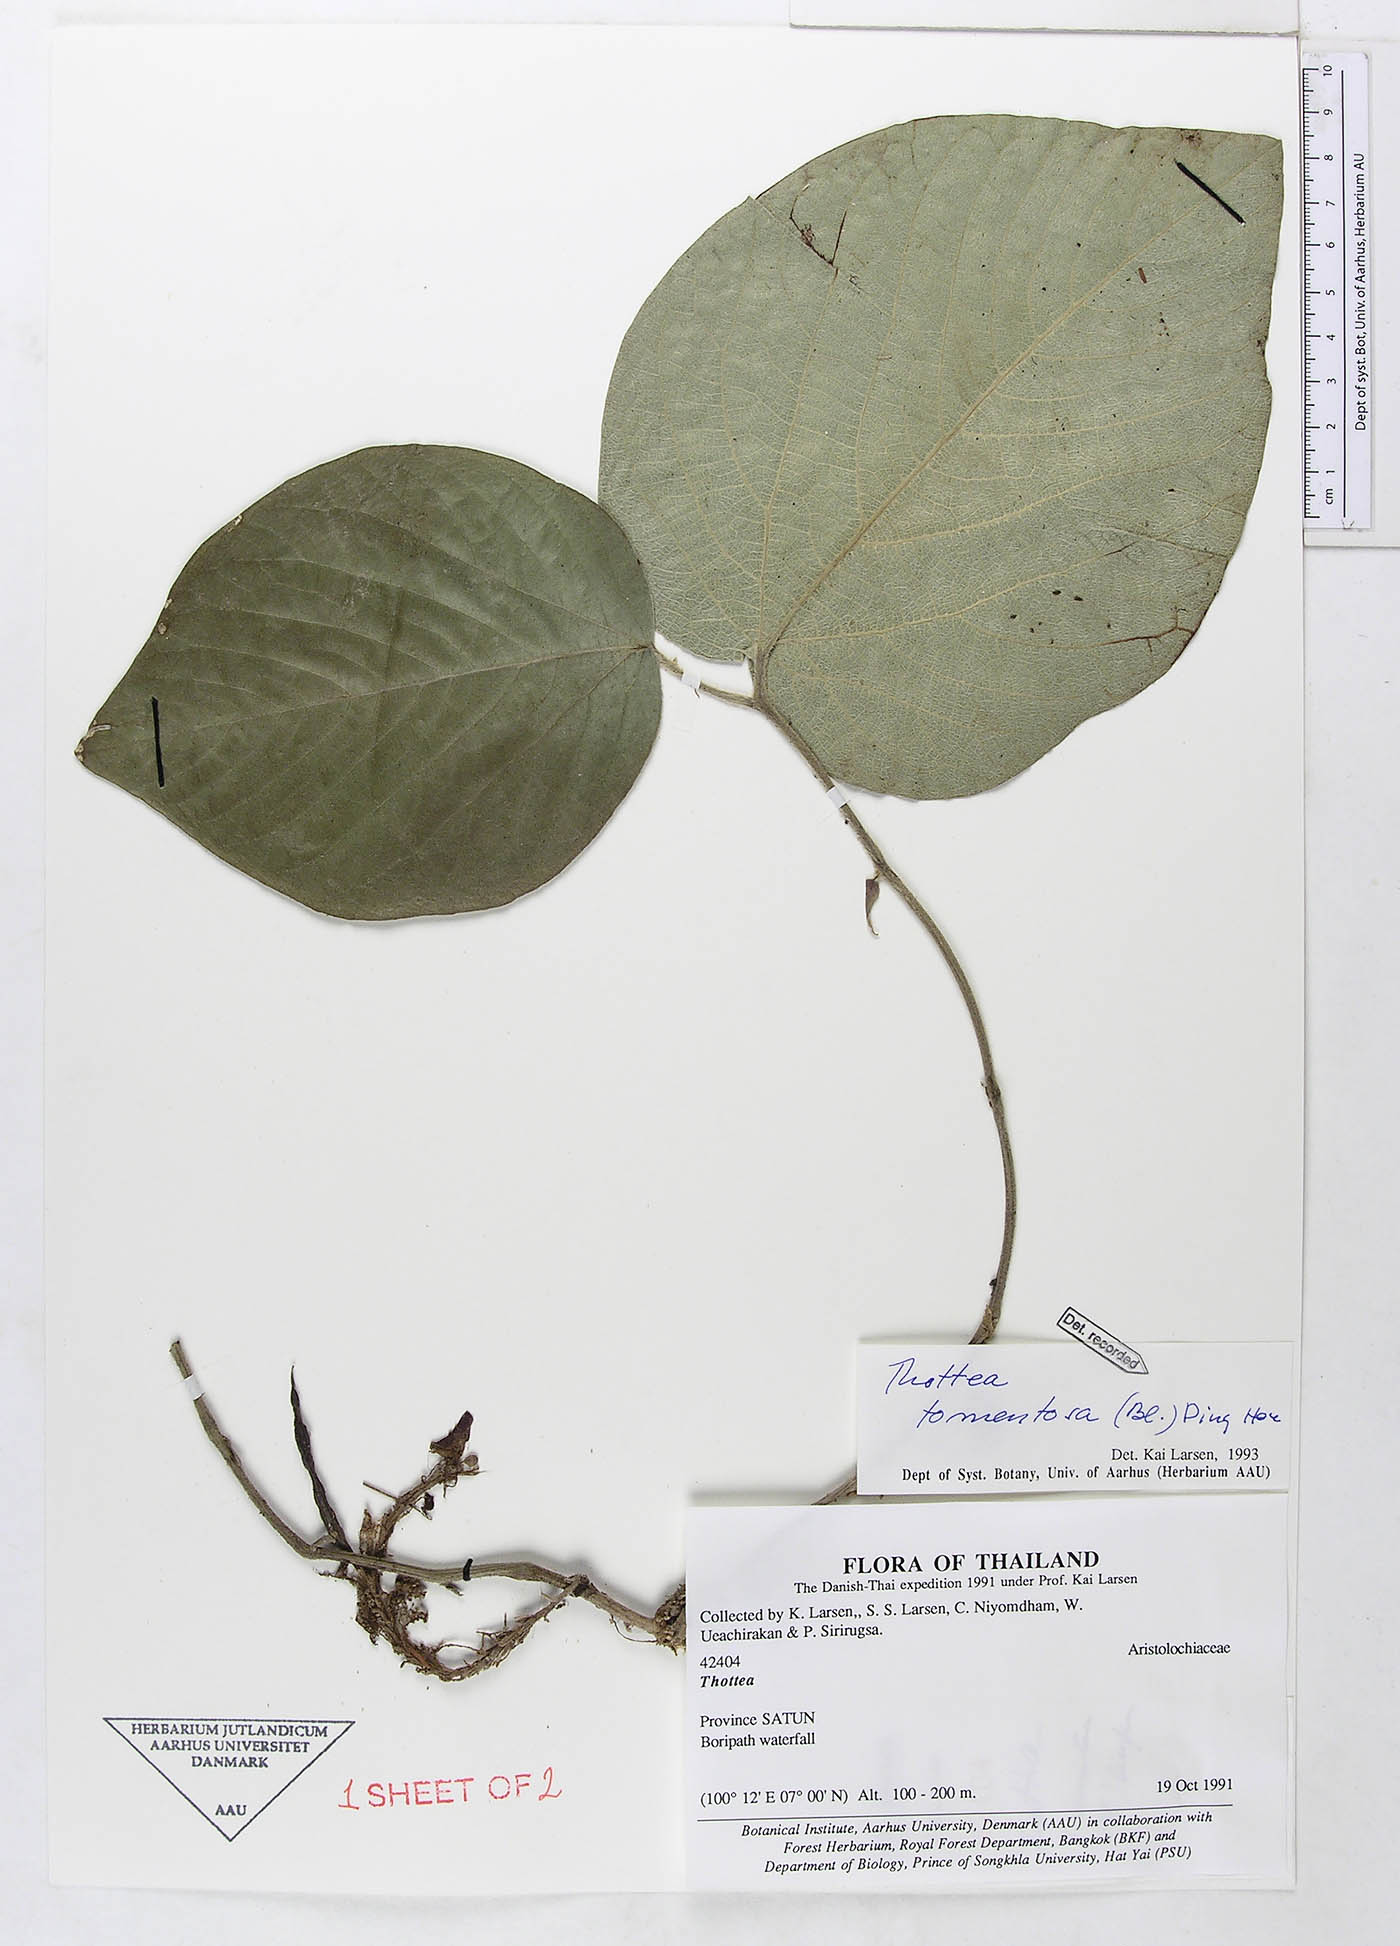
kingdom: Plantae
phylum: Tracheophyta
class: Magnoliopsida
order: Piperales
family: Aristolochiaceae
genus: Thottea
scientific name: Thottea tomentosa
